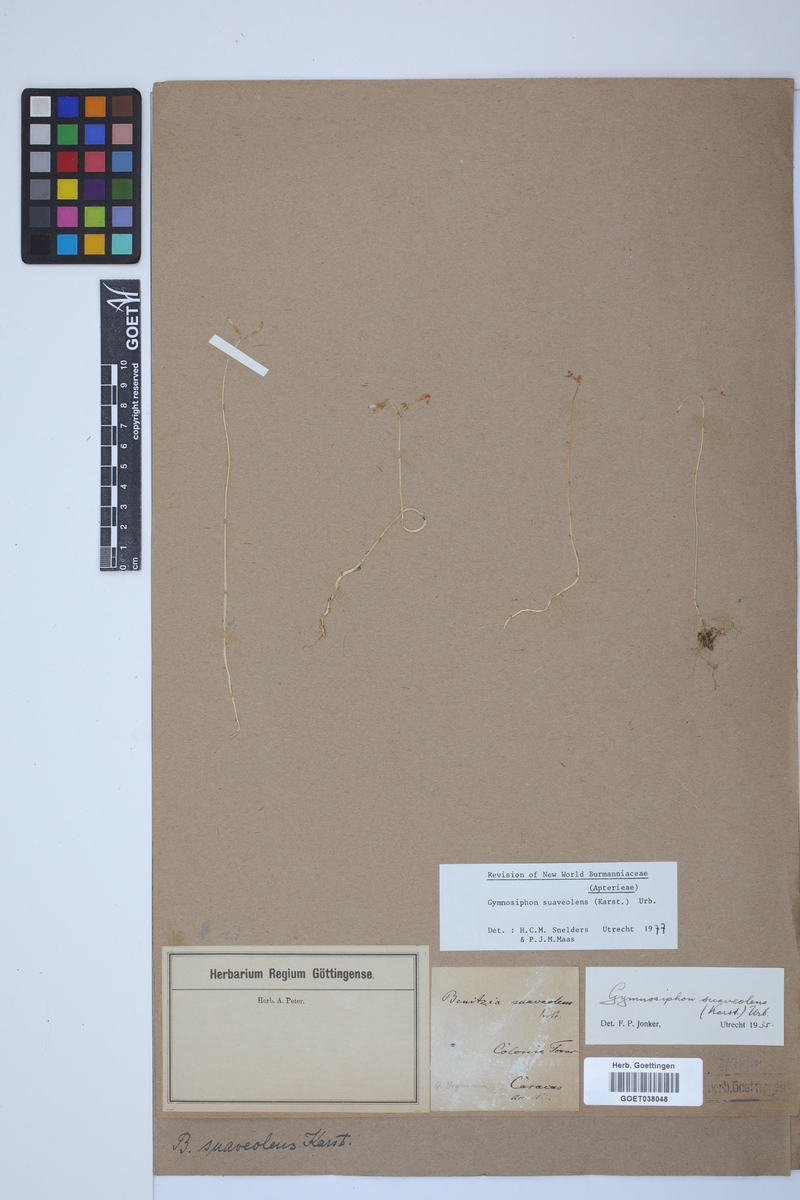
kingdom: Plantae
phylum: Tracheophyta
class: Liliopsida
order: Dioscoreales
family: Burmanniaceae
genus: Gymnosiphon
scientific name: Gymnosiphon suaveolens
